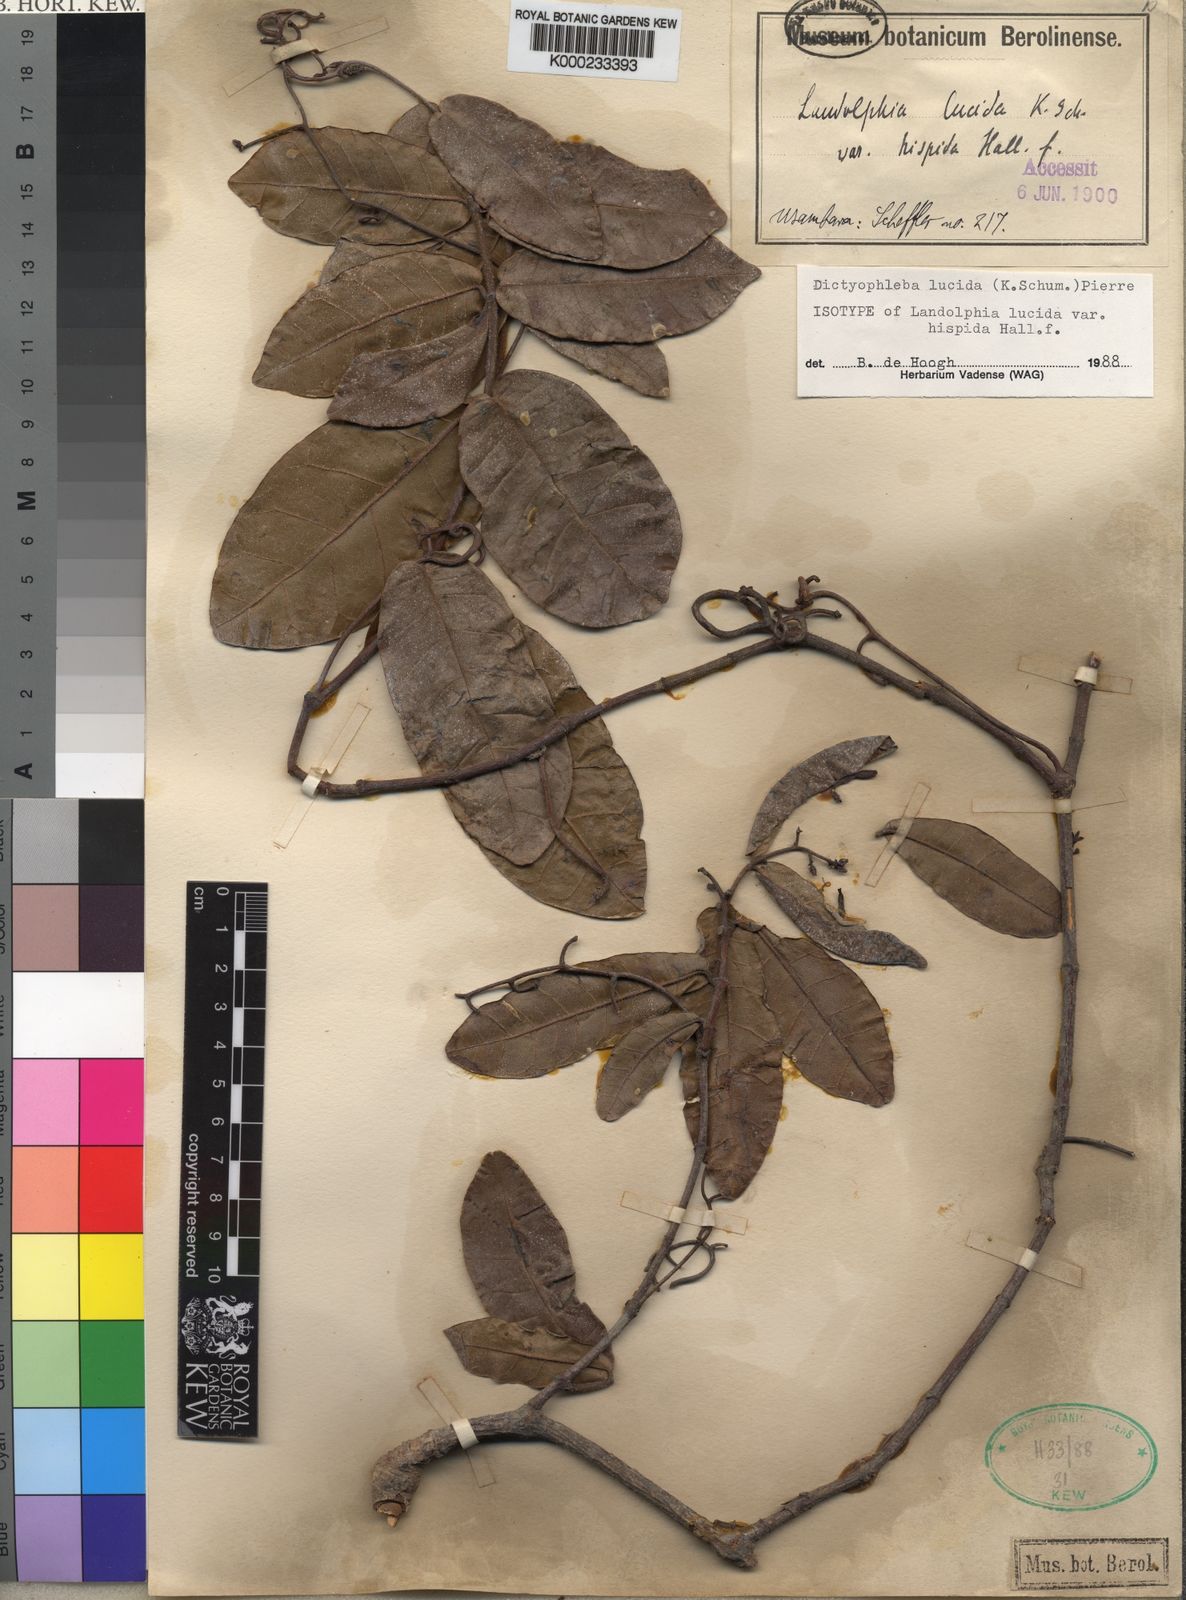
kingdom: Plantae
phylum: Tracheophyta
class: Magnoliopsida
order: Gentianales
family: Apocynaceae
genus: Dictyophleba
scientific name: Dictyophleba lucida
